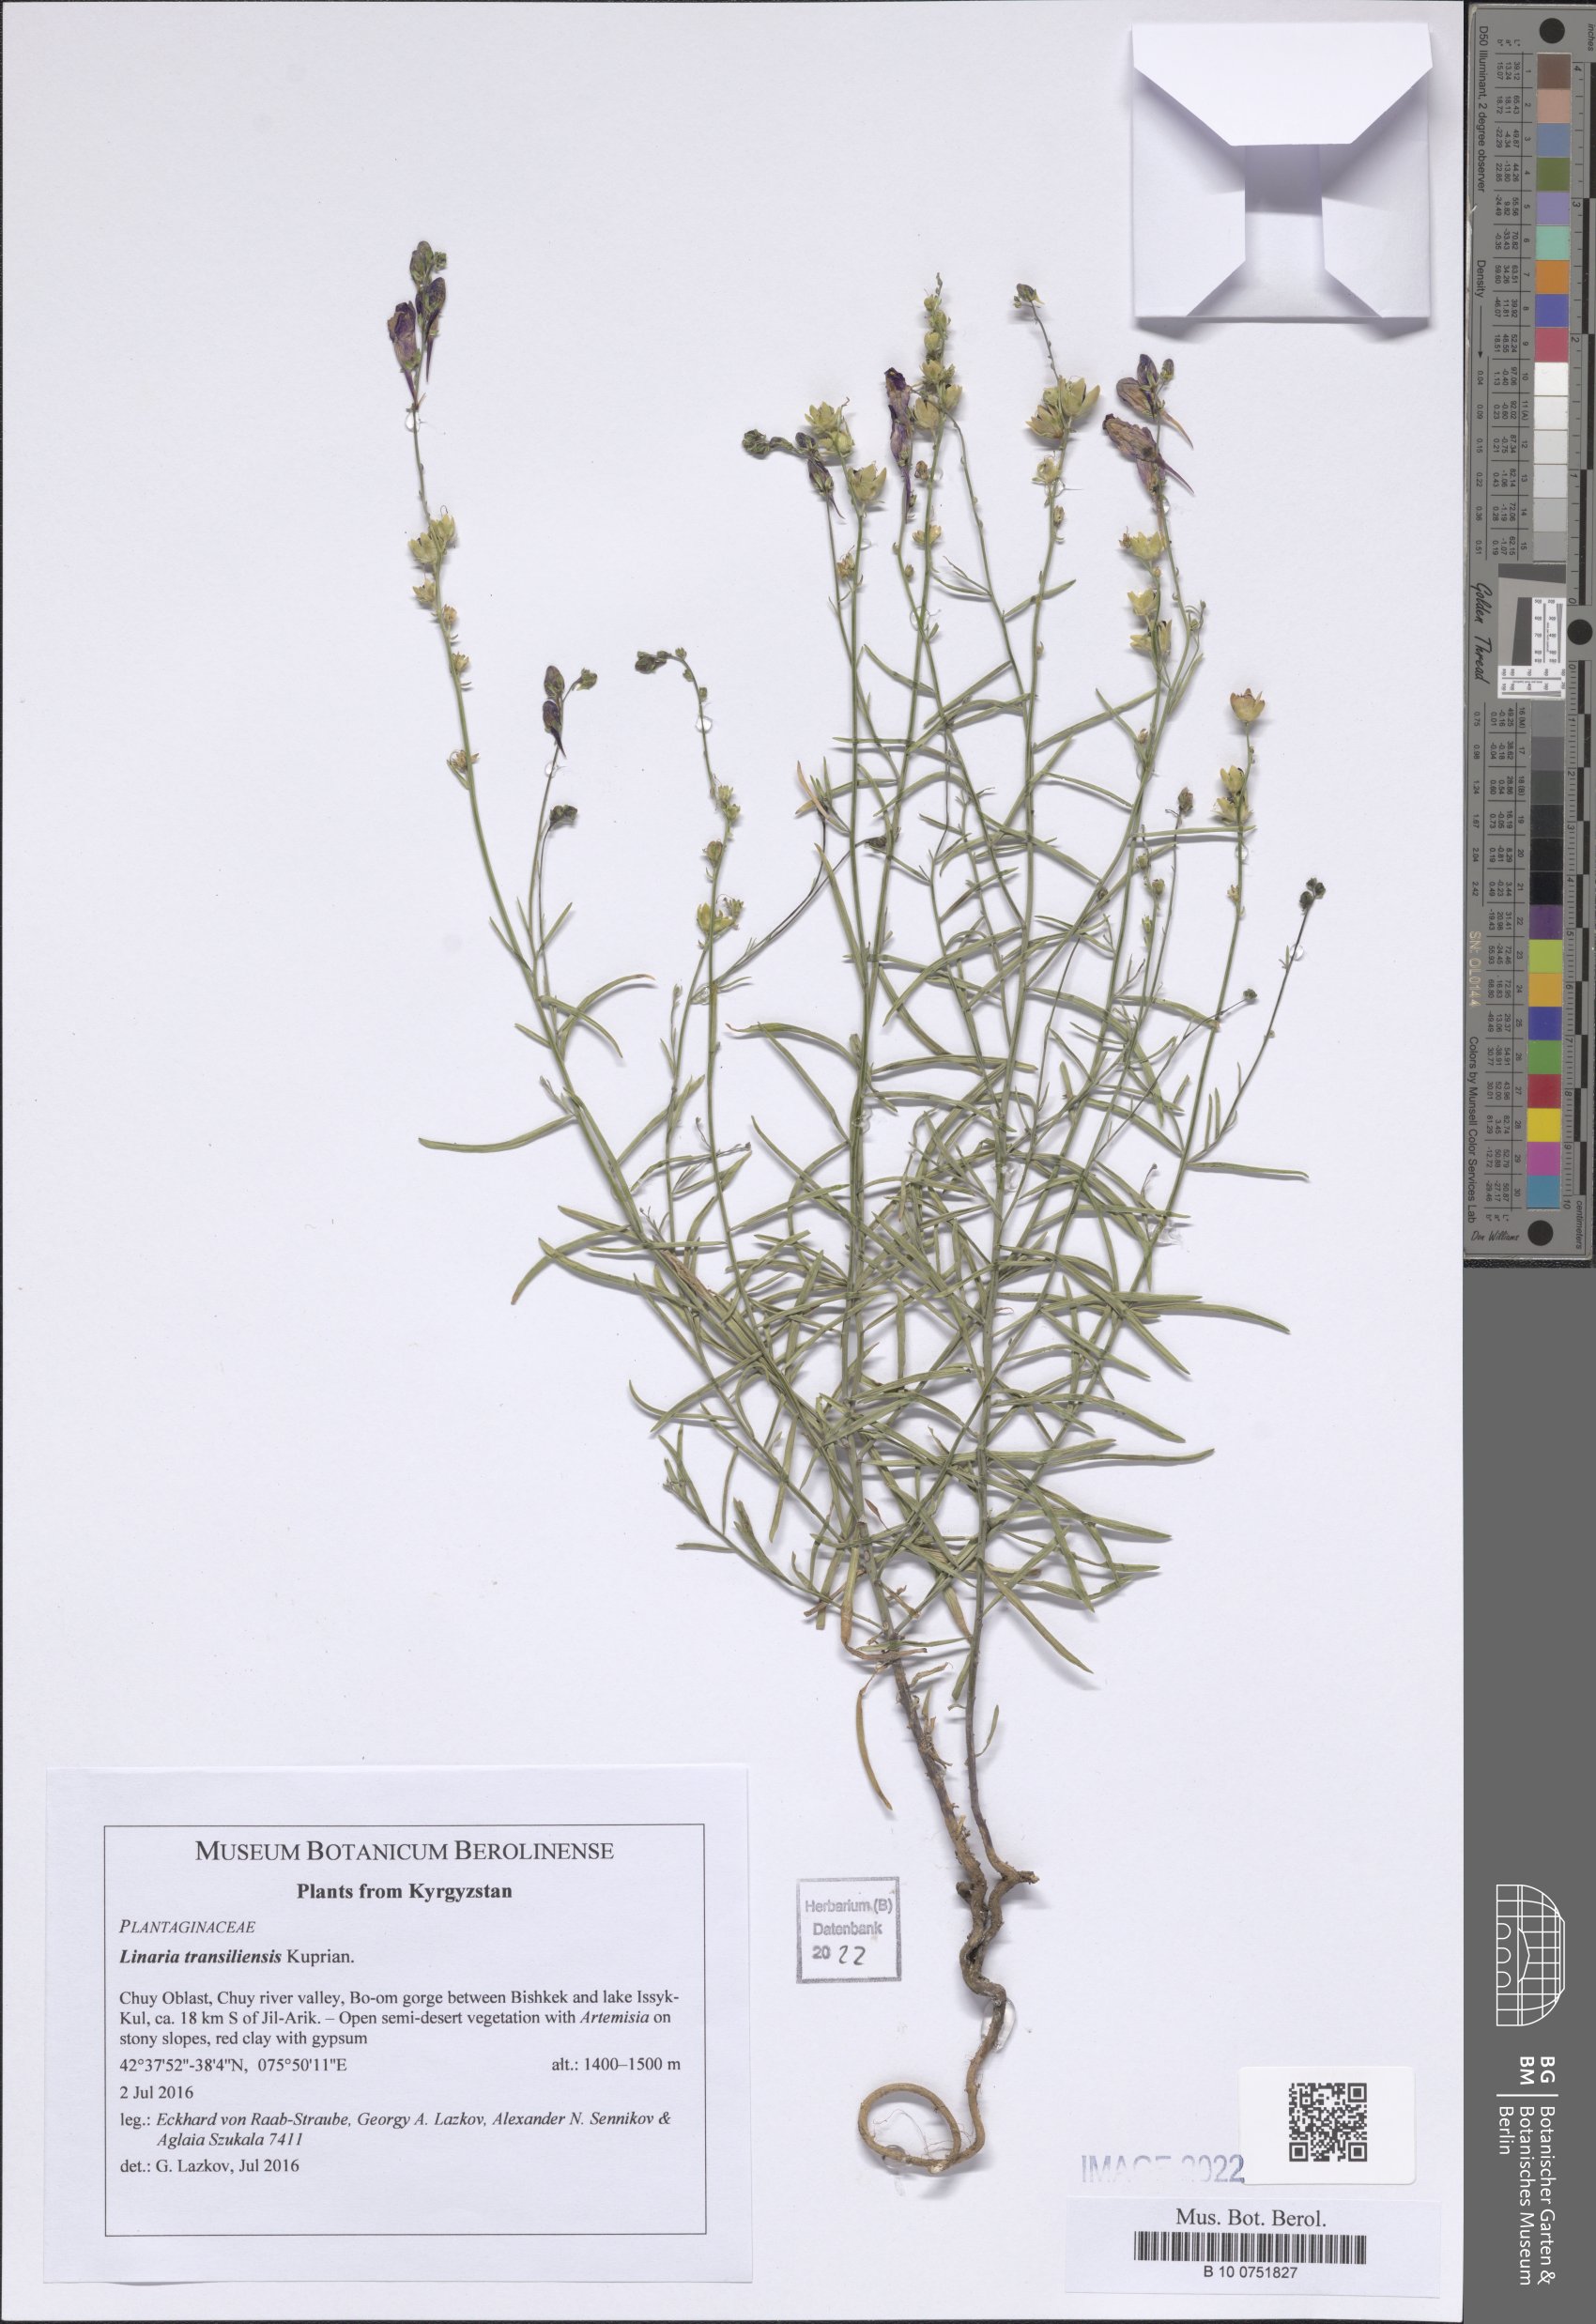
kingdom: Plantae
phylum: Tracheophyta
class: Magnoliopsida
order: Lamiales
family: Plantaginaceae
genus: Linaria
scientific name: Linaria bungei
